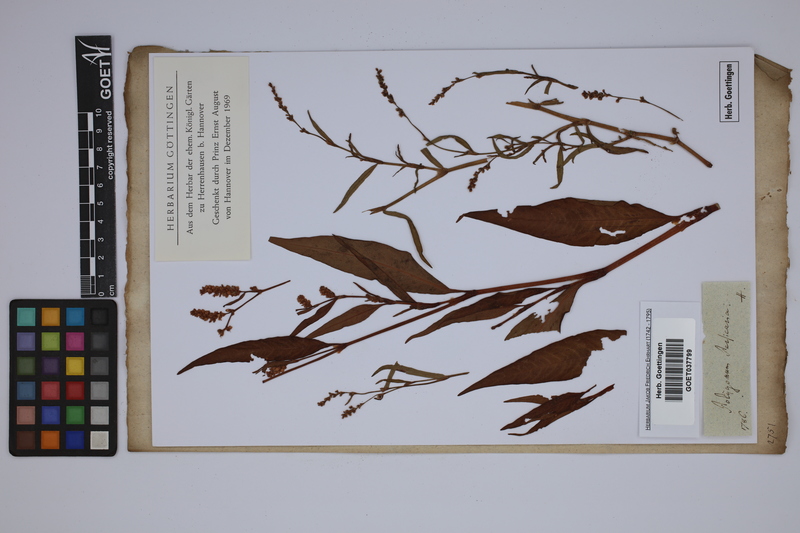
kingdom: Plantae
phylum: Tracheophyta
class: Magnoliopsida
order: Caryophyllales
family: Polygonaceae
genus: Persicaria
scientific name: Persicaria maculosa
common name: Redshank
